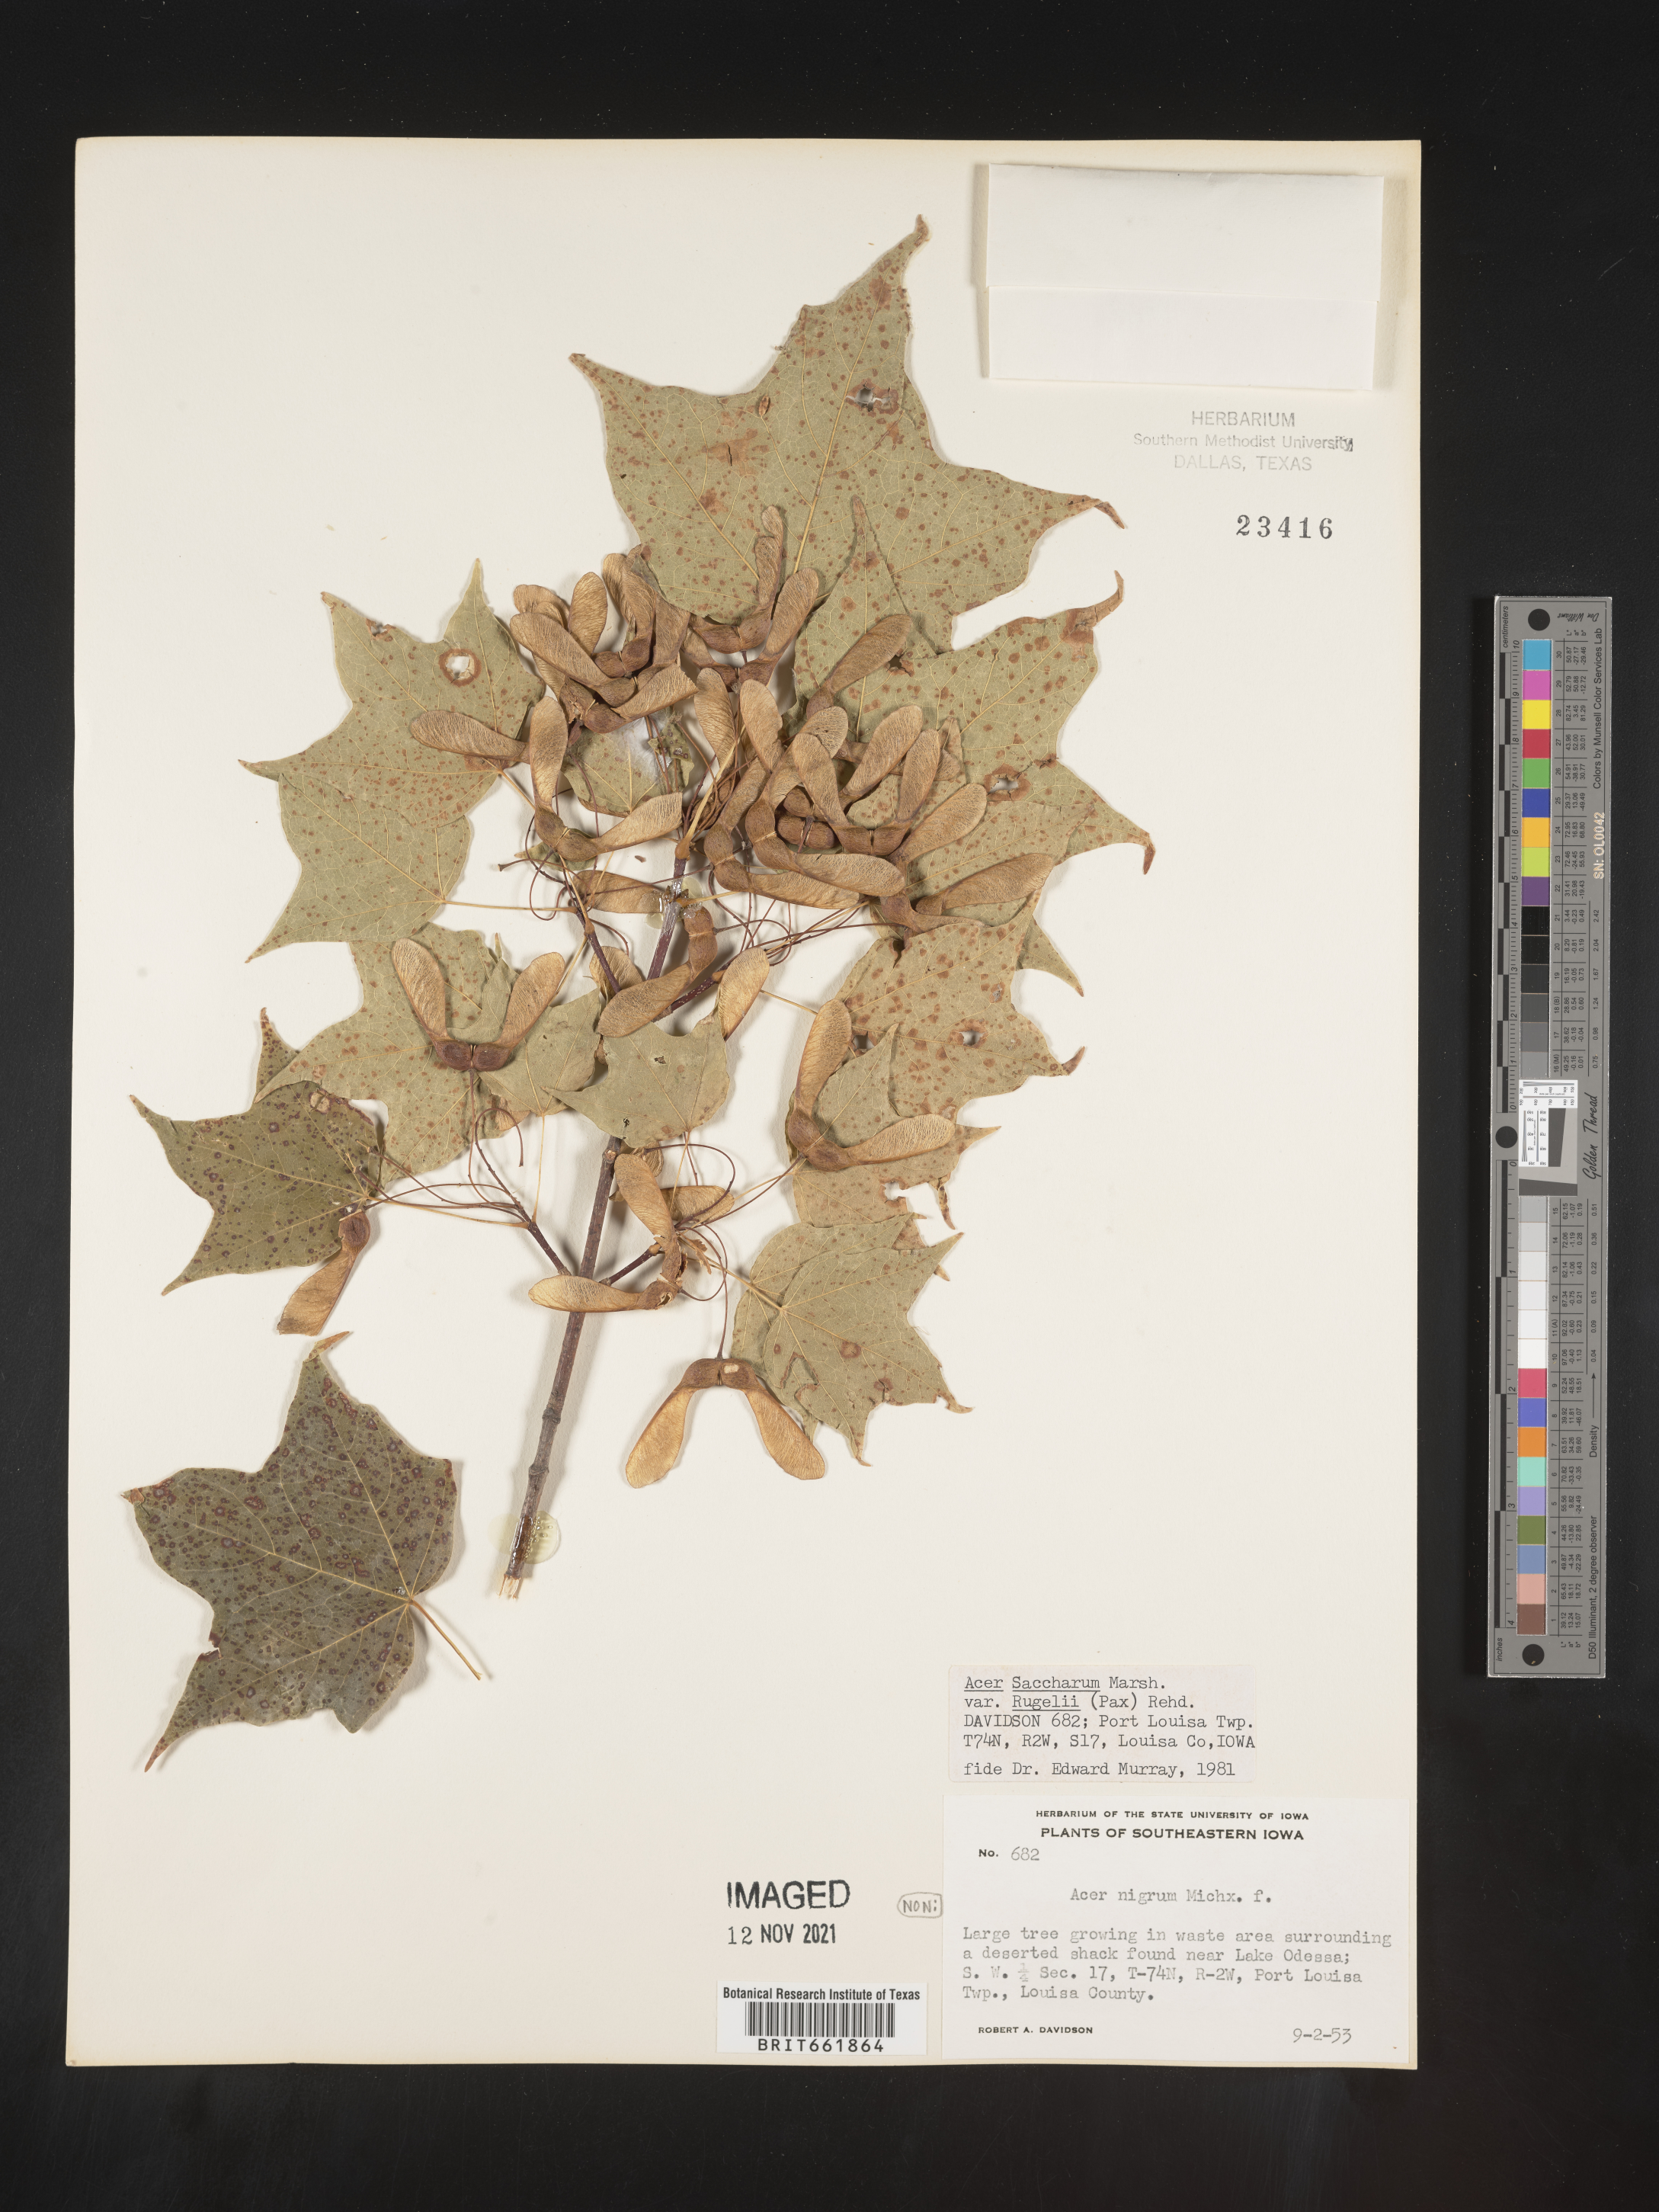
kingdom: Plantae
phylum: Tracheophyta
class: Magnoliopsida
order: Sapindales
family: Sapindaceae
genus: Acer
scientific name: Acer saccharum
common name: Sugar maple
